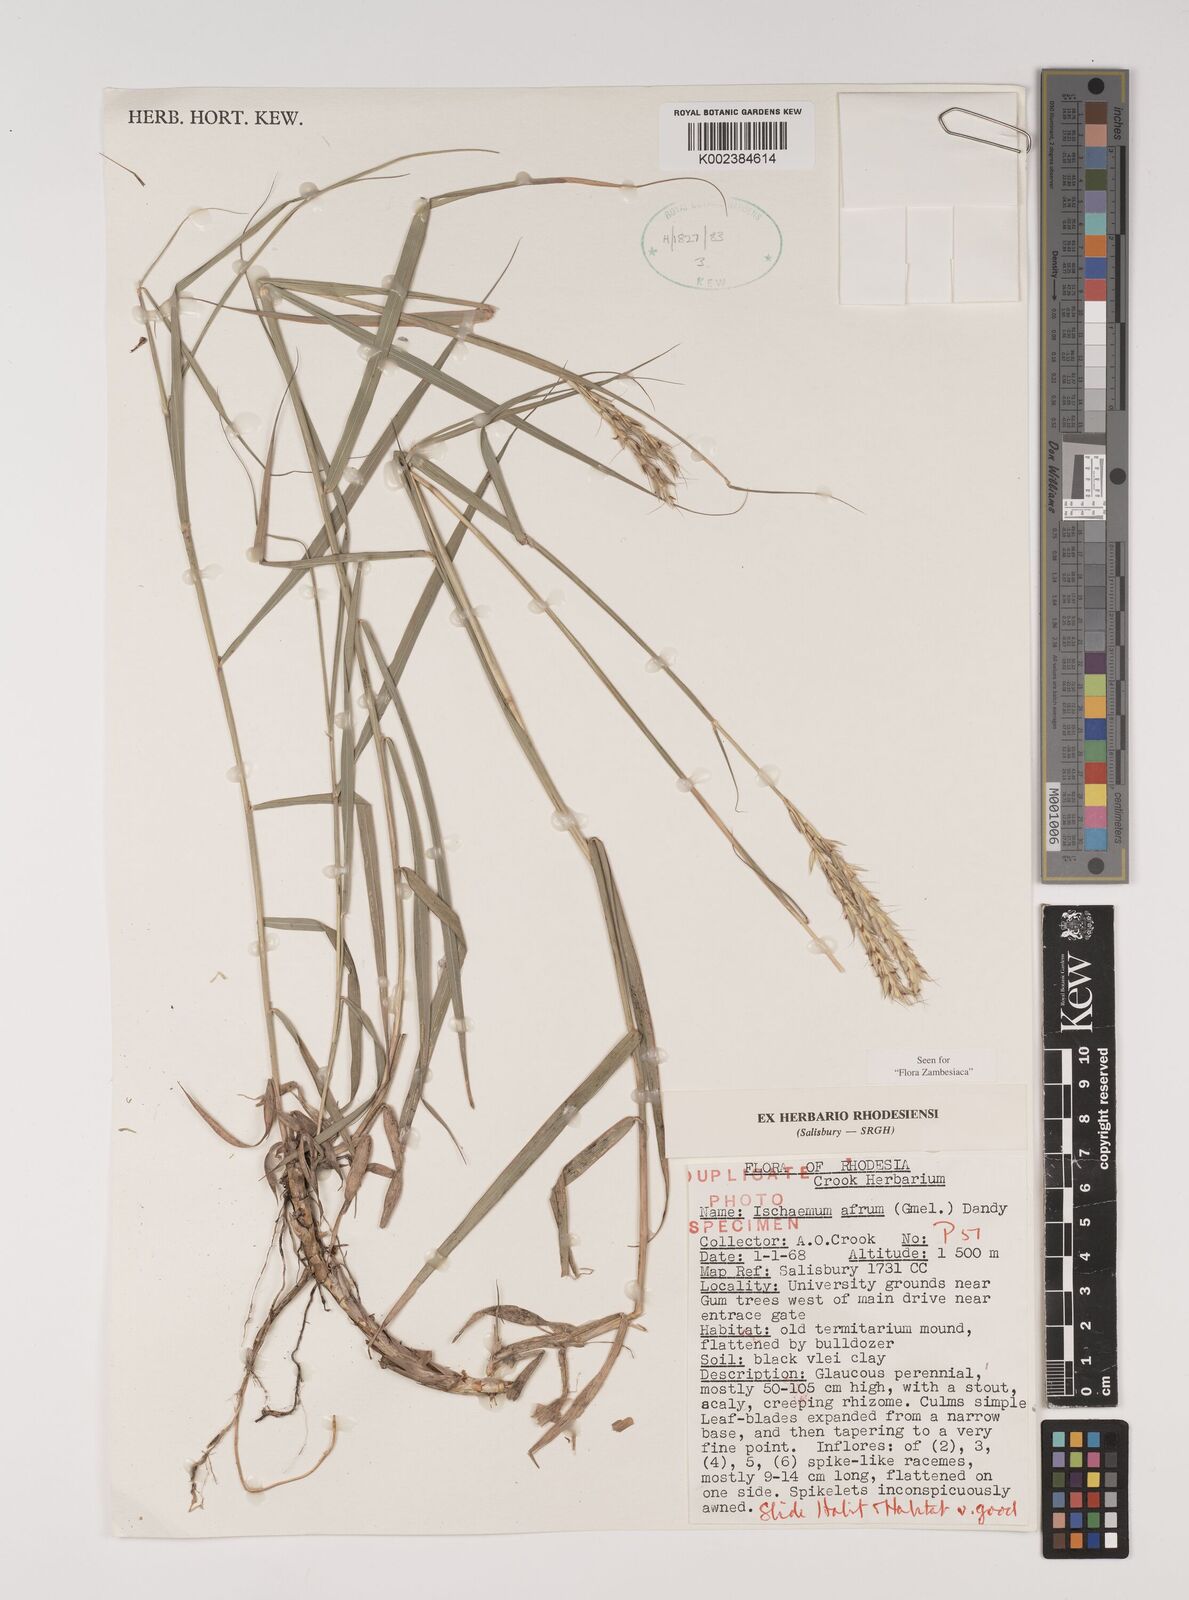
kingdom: Plantae
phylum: Tracheophyta
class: Liliopsida
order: Poales
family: Poaceae
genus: Ischaemum
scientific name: Ischaemum afrum
